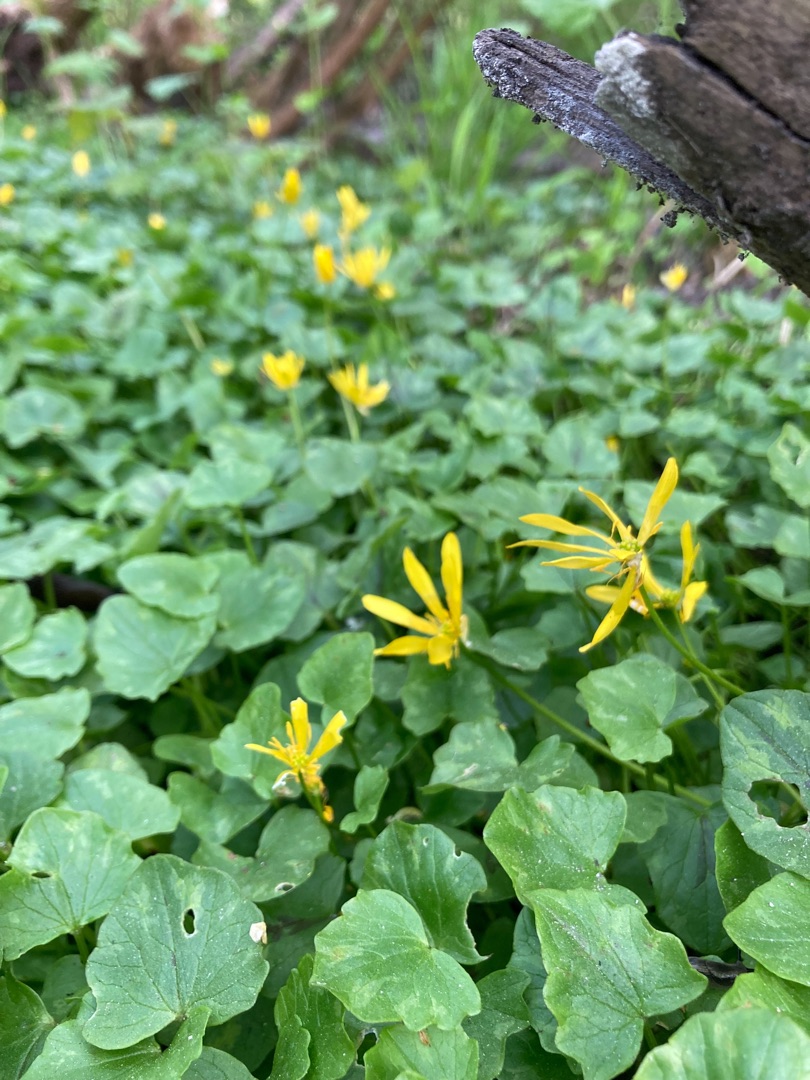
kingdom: Plantae
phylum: Tracheophyta
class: Magnoliopsida
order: Ranunculales
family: Ranunculaceae
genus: Ficaria
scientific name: Ficaria verna
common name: Vorterod
